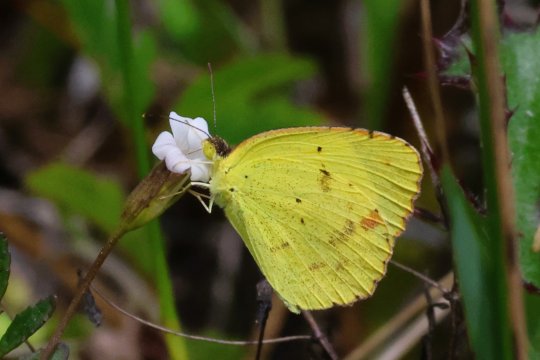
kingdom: Animalia
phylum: Arthropoda
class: Insecta
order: Lepidoptera
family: Pieridae
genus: Pyrisitia
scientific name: Pyrisitia lisa
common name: Little Yellow
